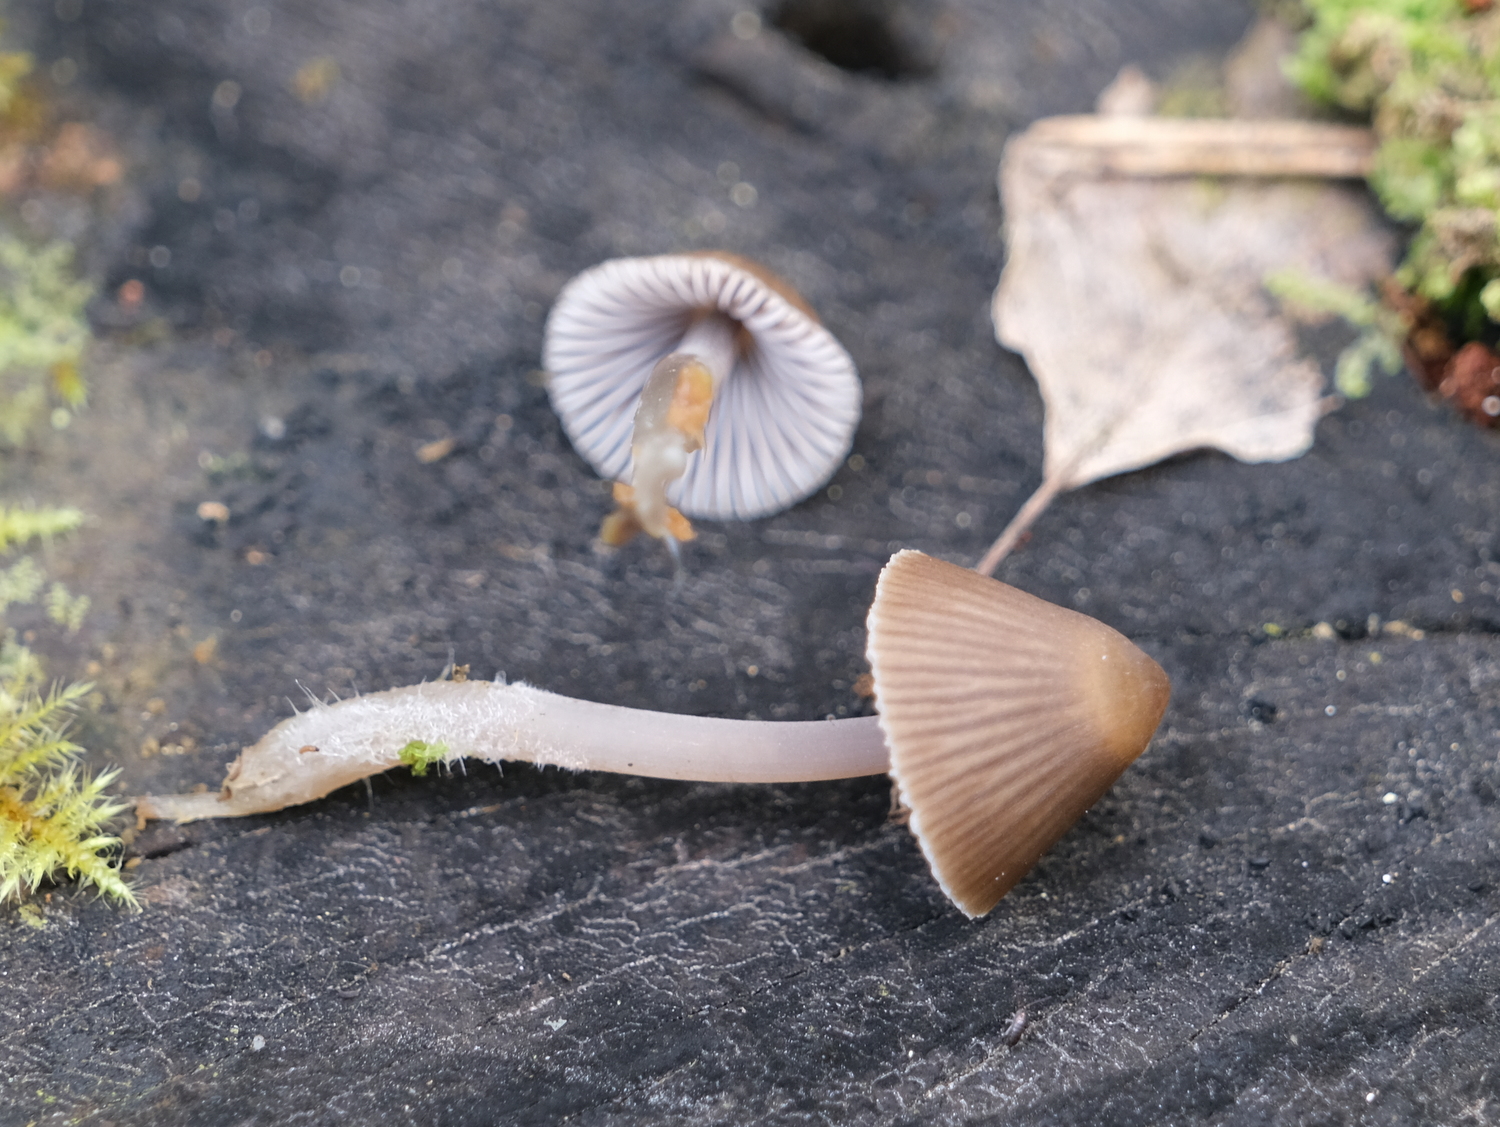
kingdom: Fungi
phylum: Basidiomycota
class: Agaricomycetes
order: Agaricales
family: Mycenaceae
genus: Mycena
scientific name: Mycena stipata
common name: stinkende huesvamp
